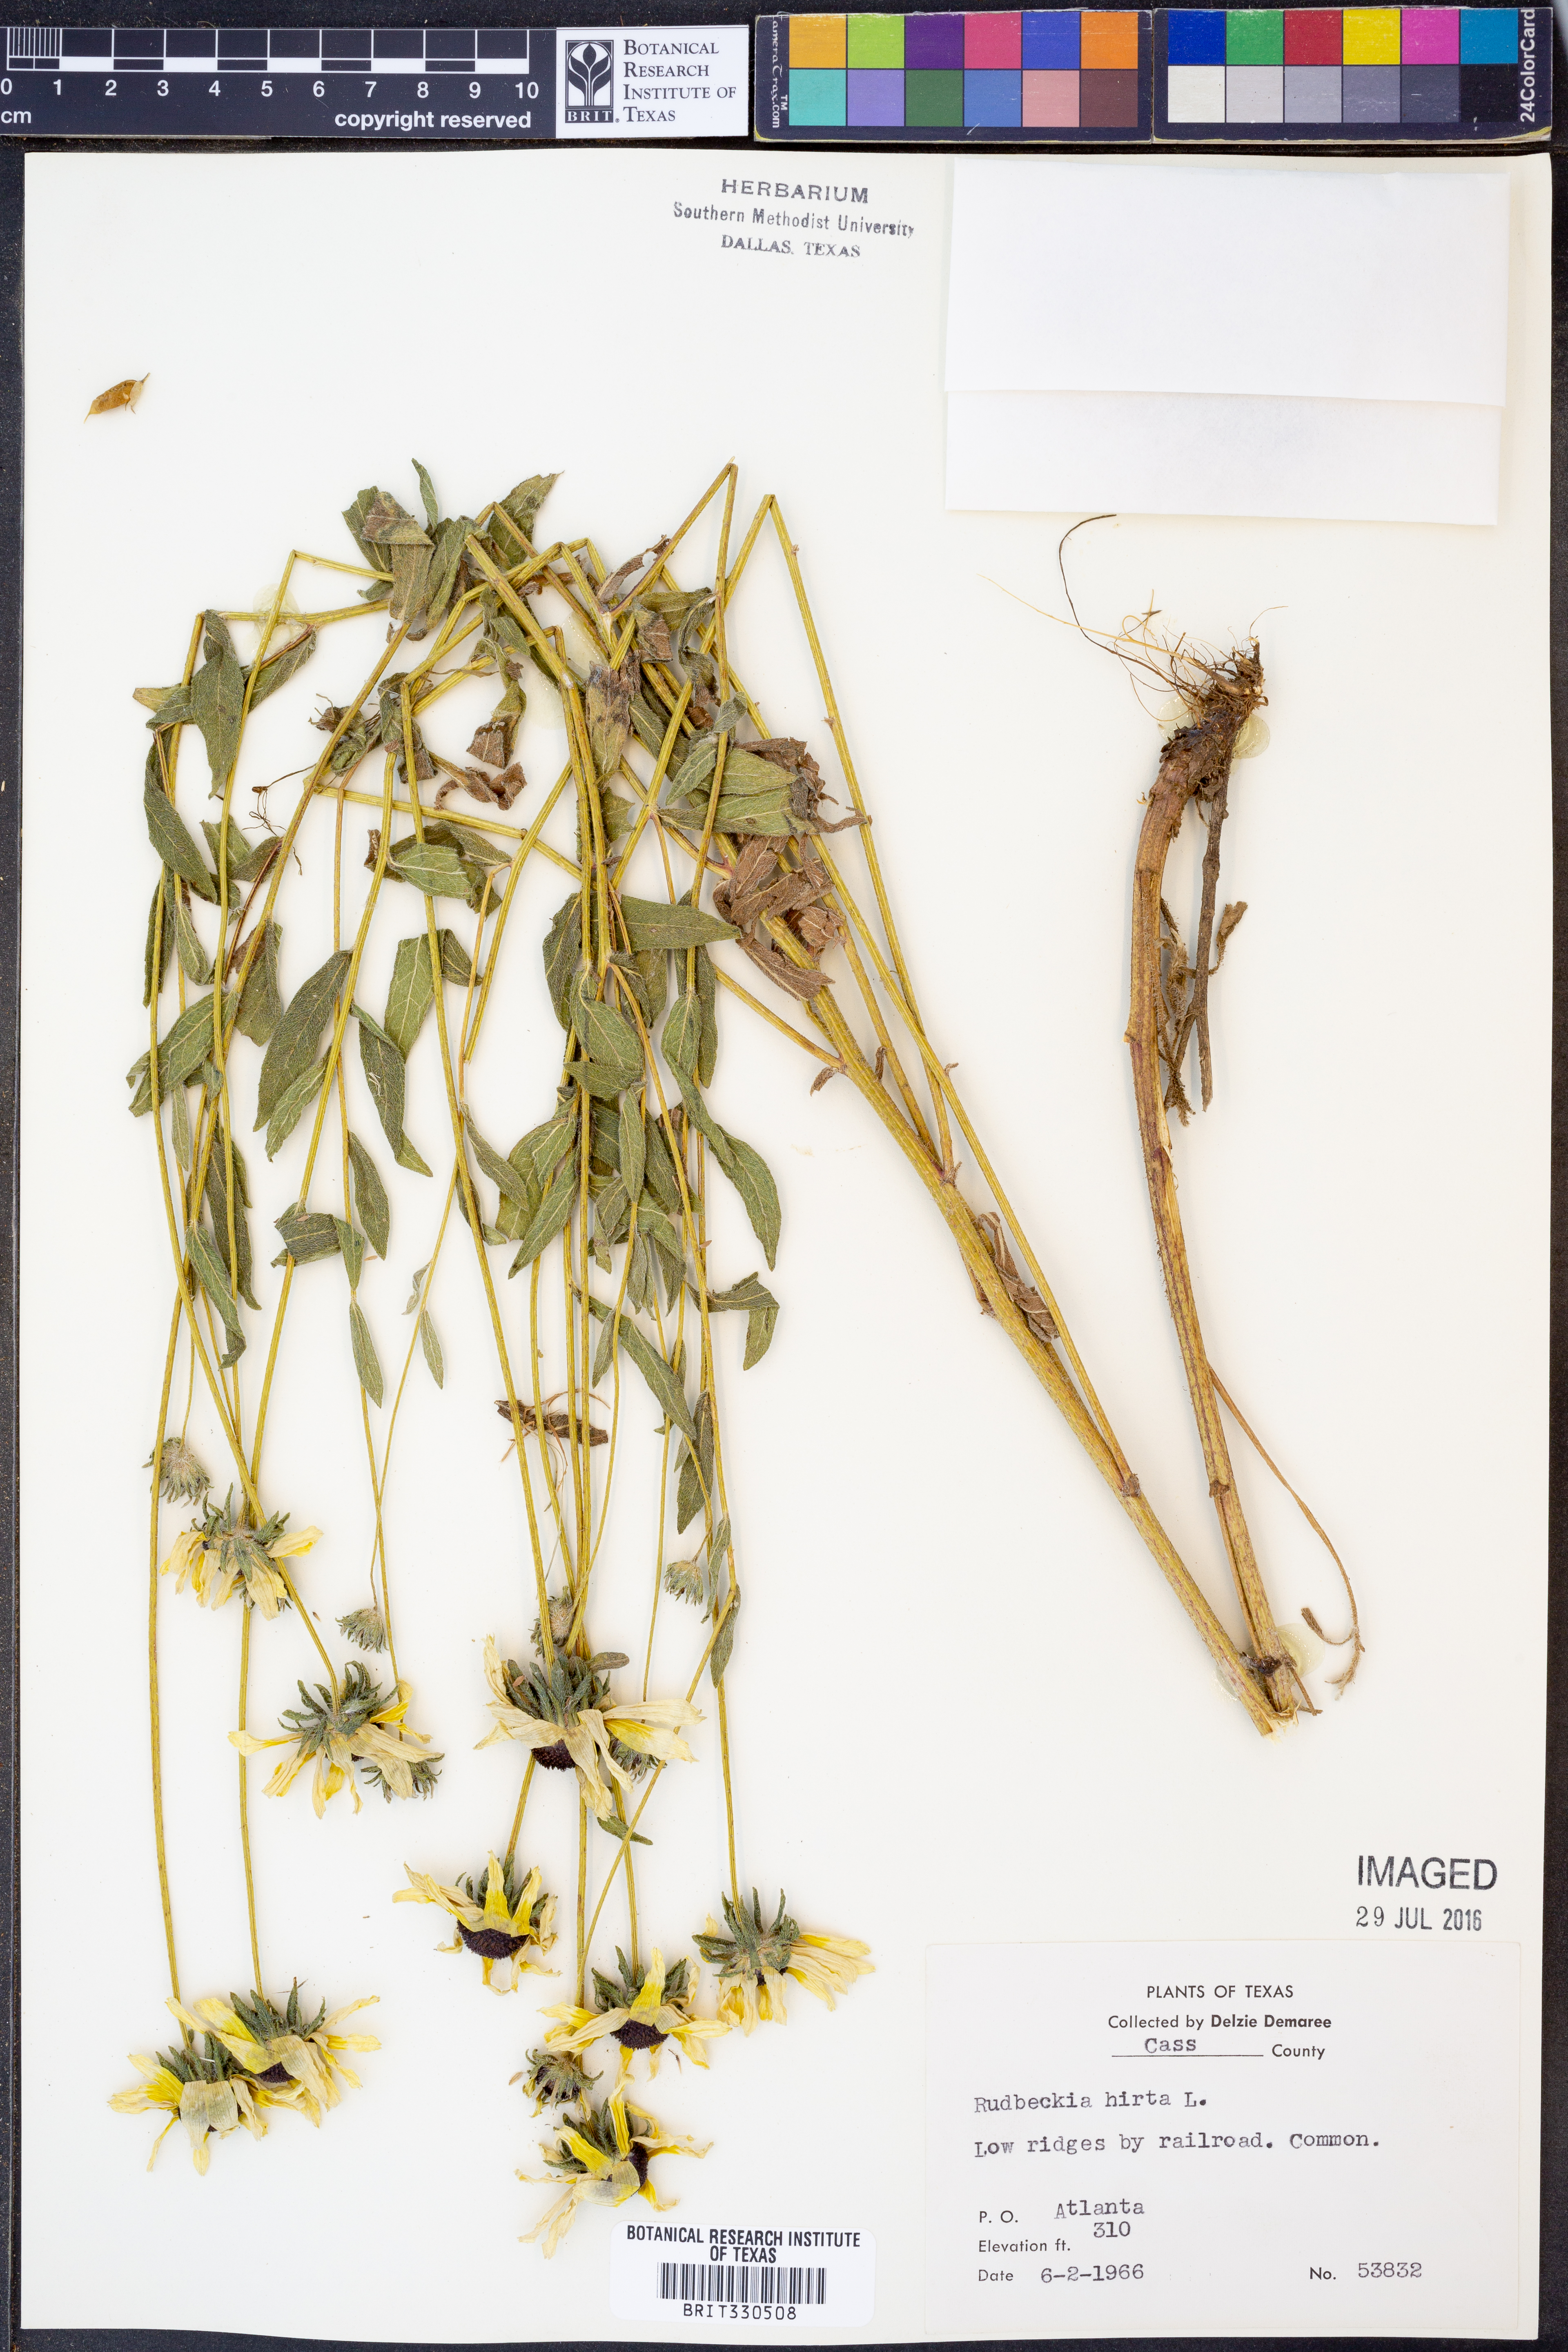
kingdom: Plantae
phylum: Tracheophyta
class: Magnoliopsida
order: Asterales
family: Asteraceae
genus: Rudbeckia
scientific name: Rudbeckia hirta
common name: Black-eyed-susan
